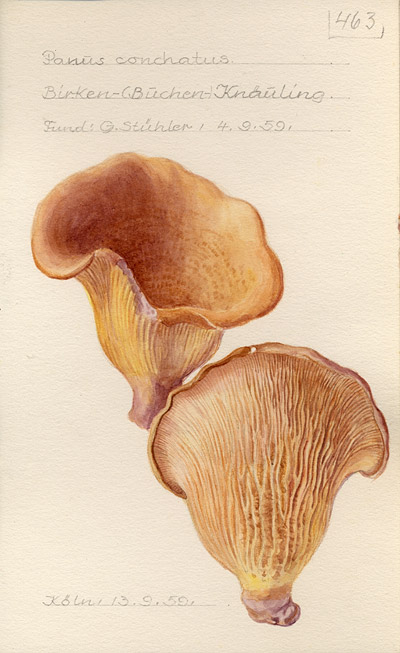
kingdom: Fungi
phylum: Basidiomycota
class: Agaricomycetes
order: Polyporales
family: Polyporaceae
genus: Lentinus
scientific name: Lentinus
